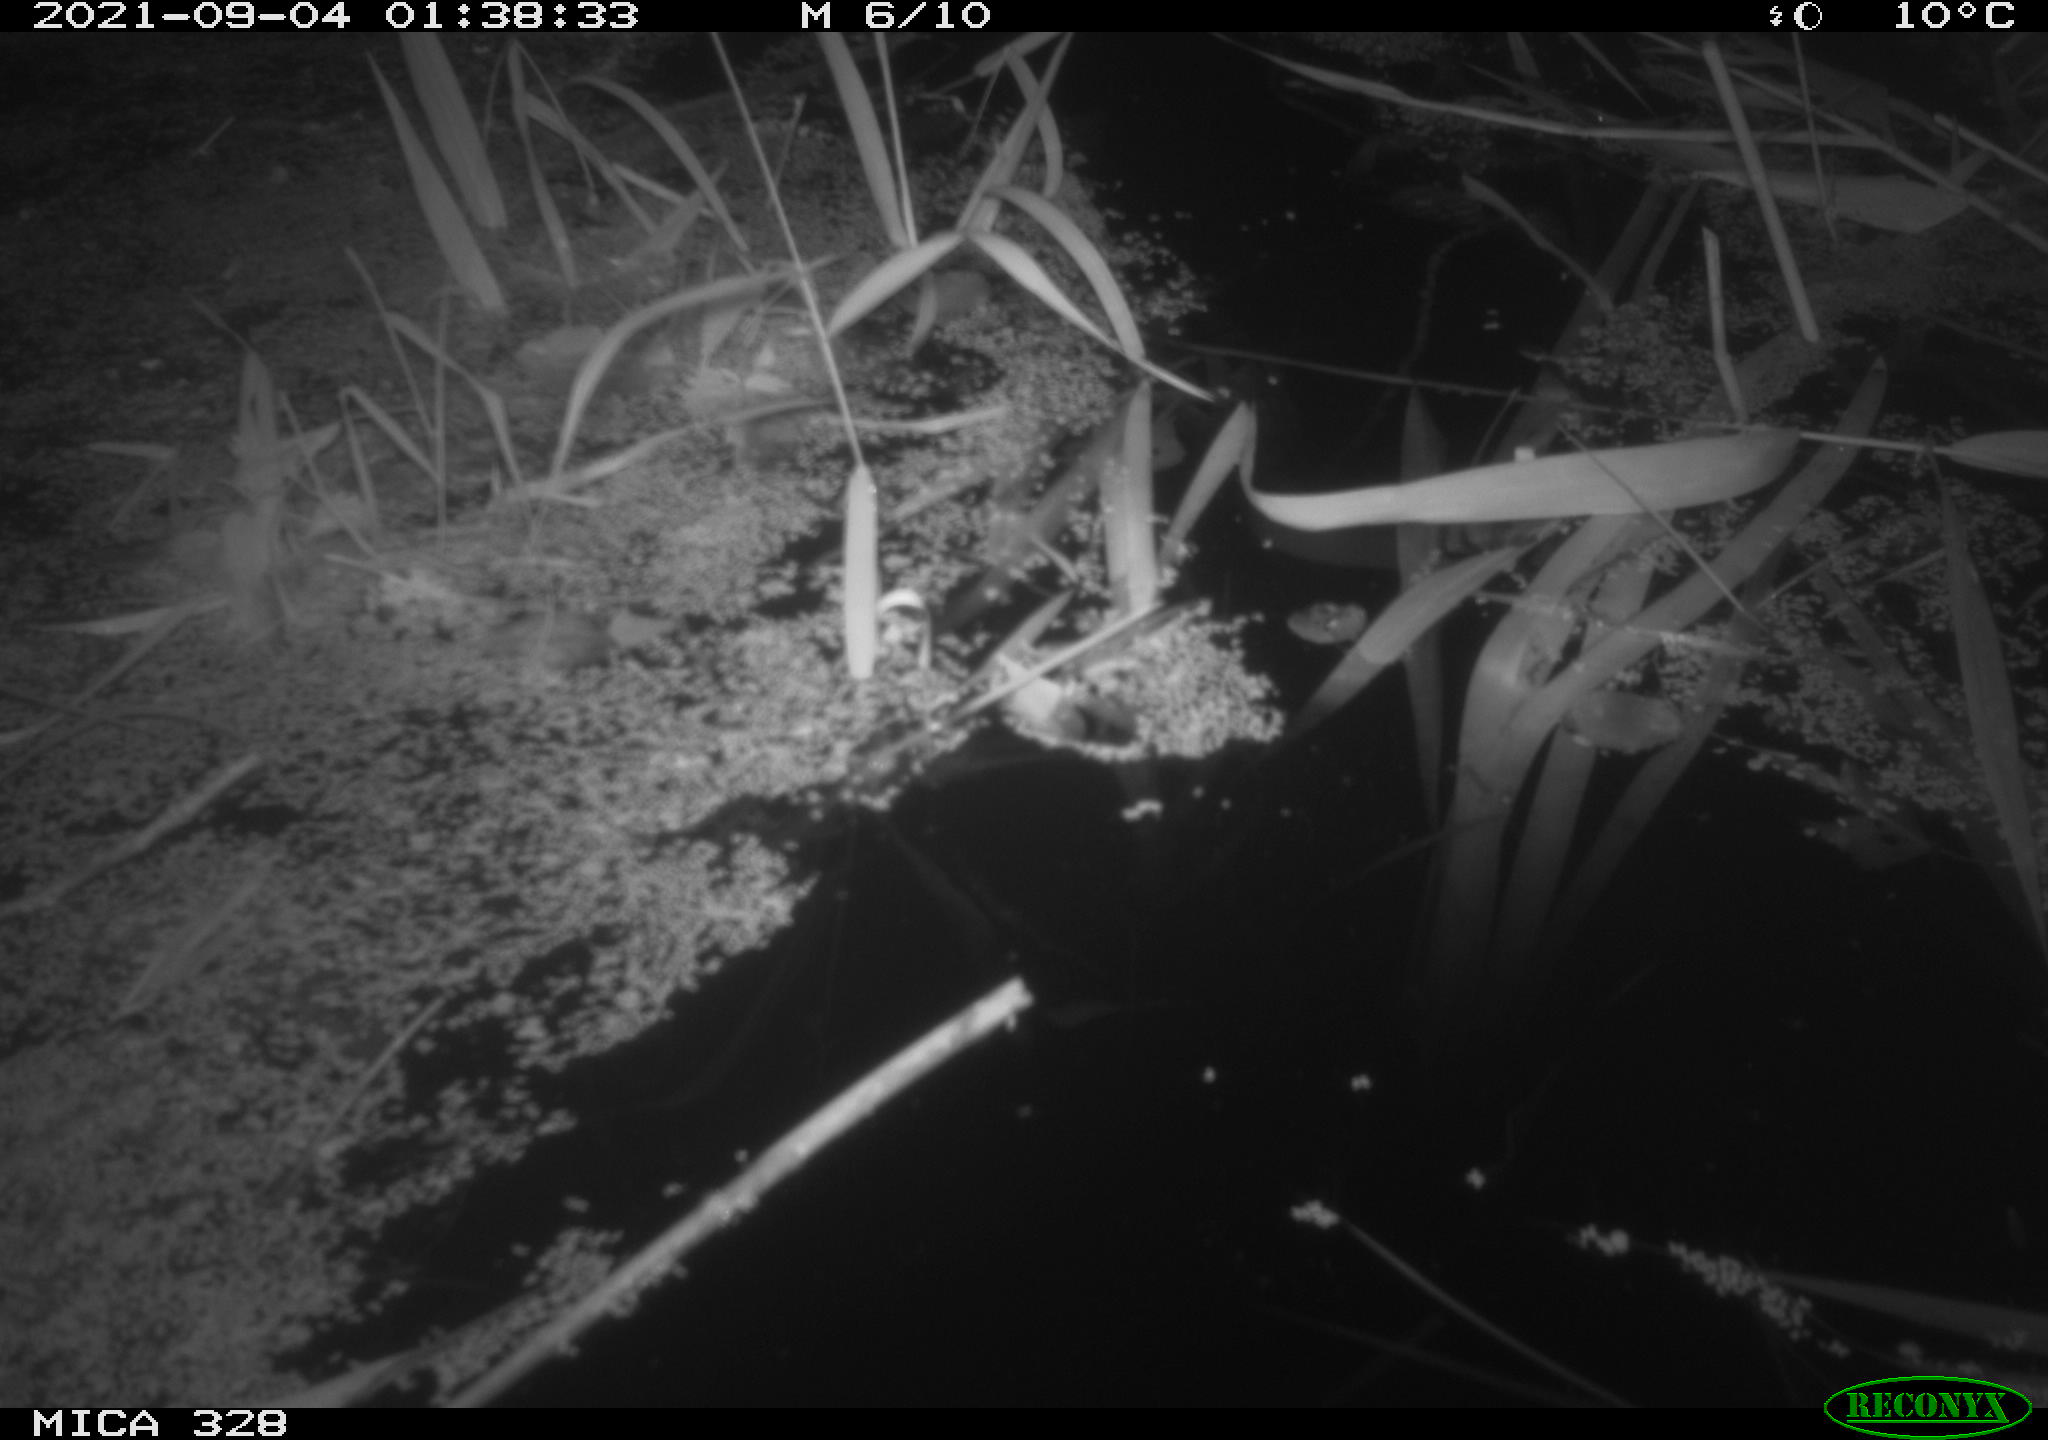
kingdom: Animalia
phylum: Chordata
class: Mammalia
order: Rodentia
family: Cricetidae
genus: Ondatra
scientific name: Ondatra zibethicus
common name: Muskrat
